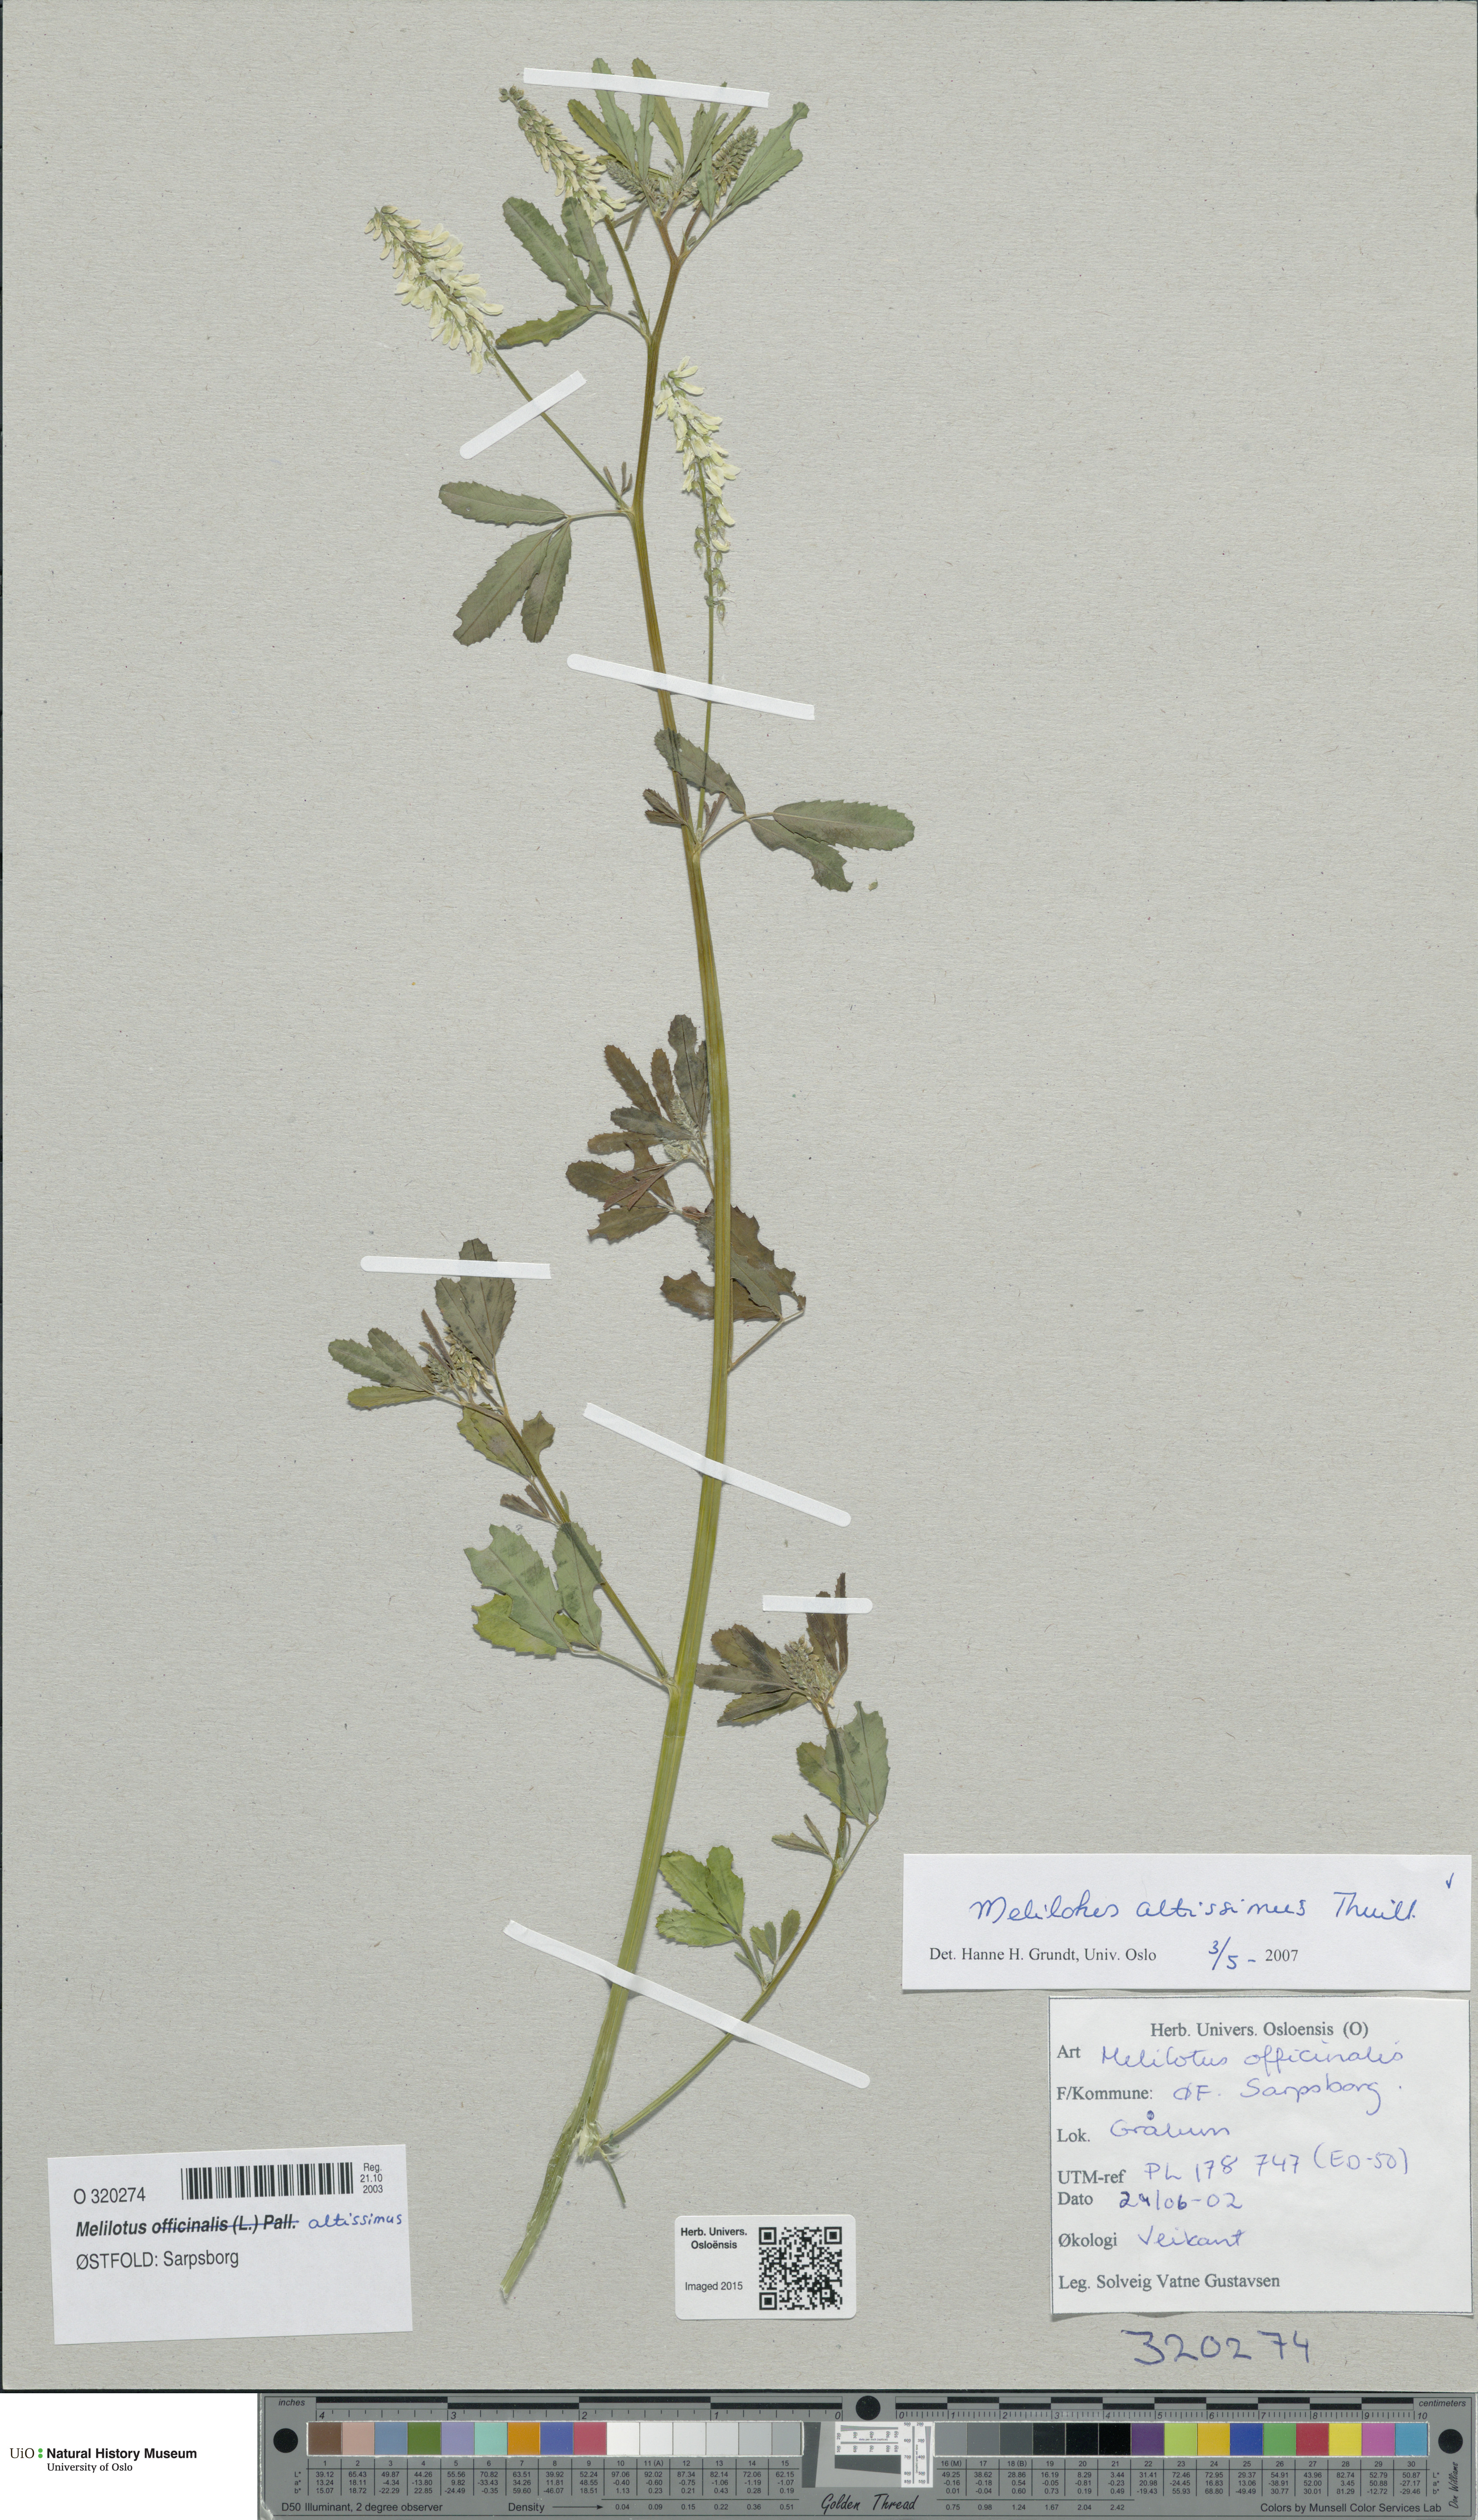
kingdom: Plantae
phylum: Tracheophyta
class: Magnoliopsida
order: Fabales
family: Fabaceae
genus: Melilotus
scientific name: Melilotus altissimus
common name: Tall melilot
